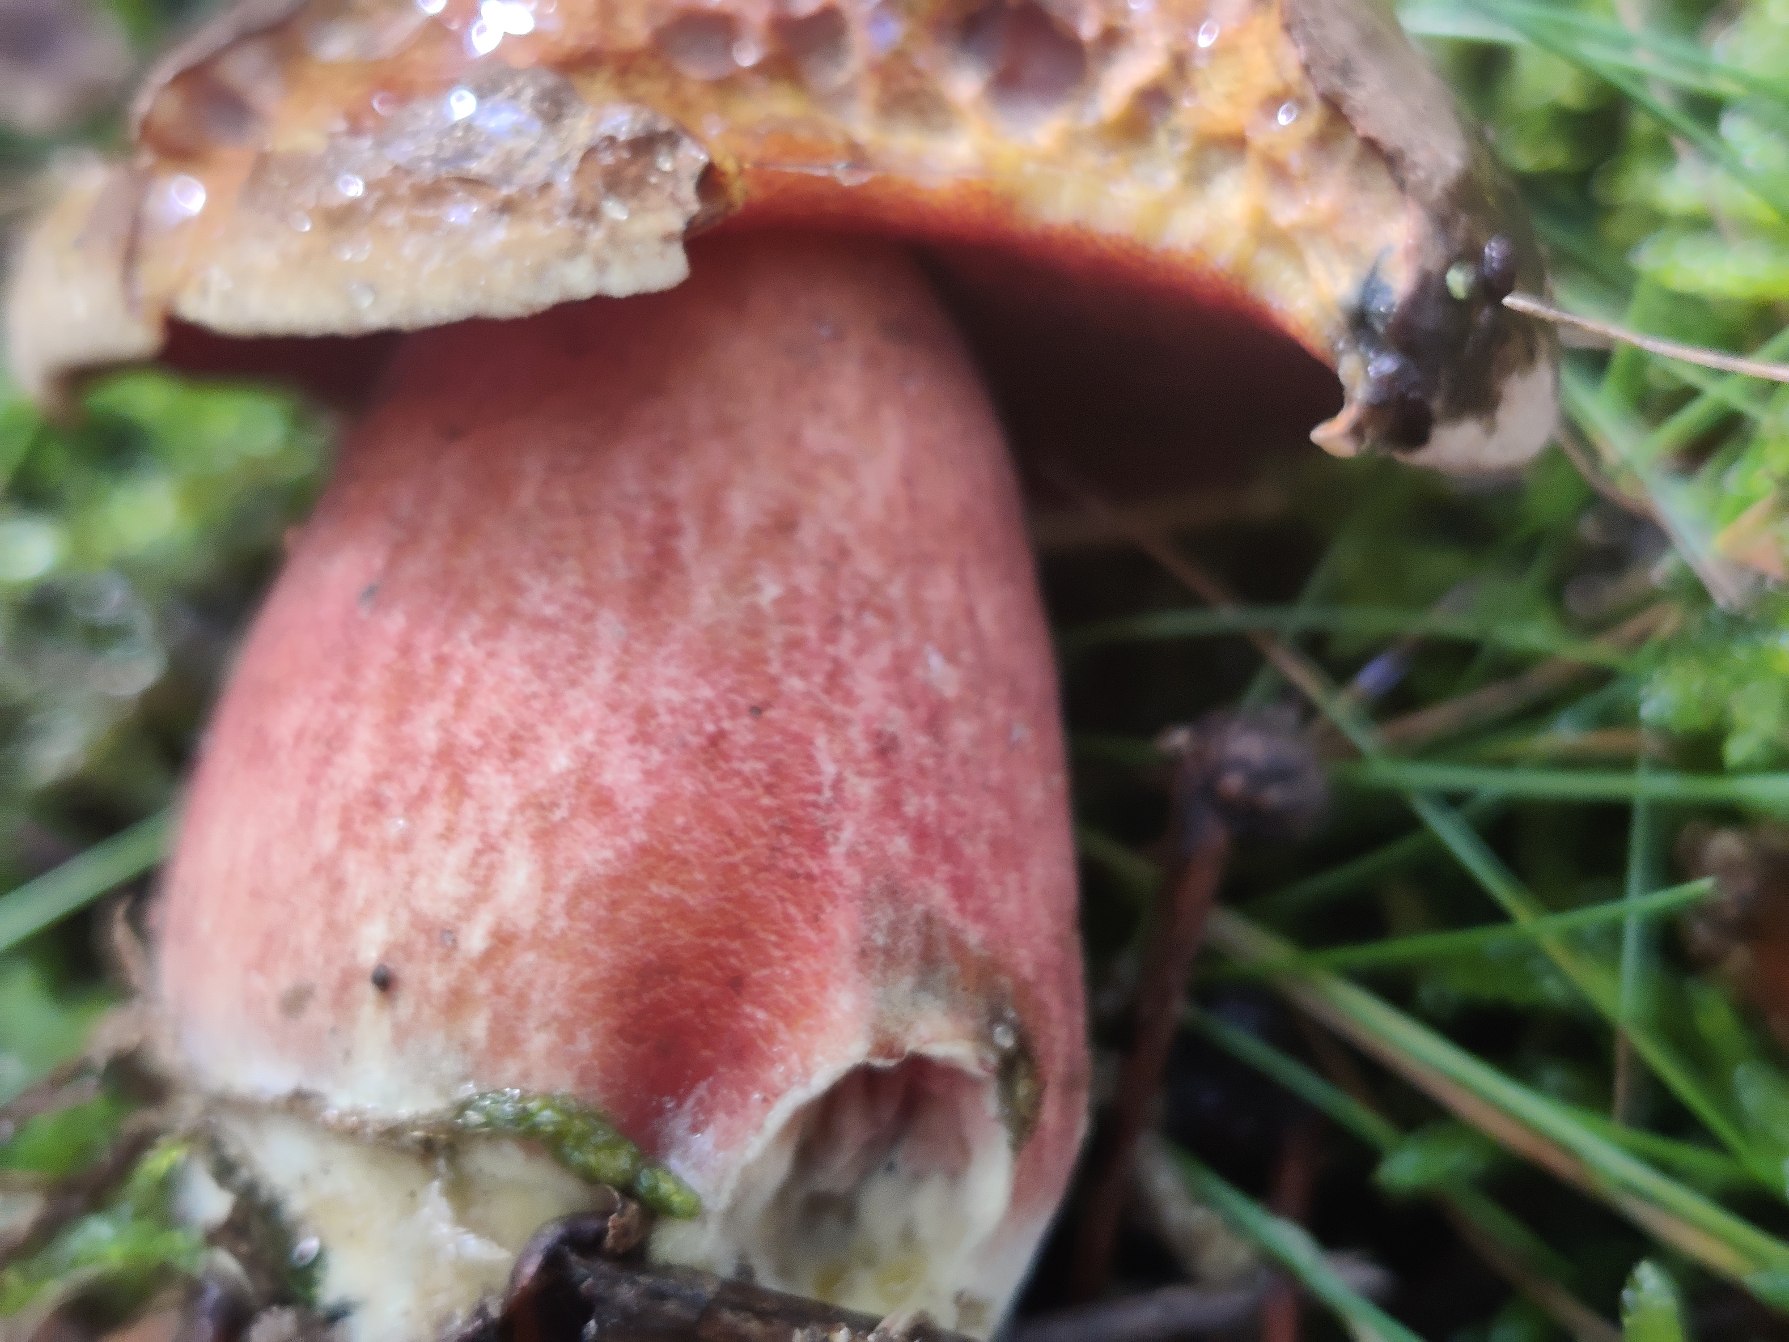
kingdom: Fungi
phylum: Basidiomycota
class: Agaricomycetes
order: Boletales
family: Boletaceae
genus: Neoboletus
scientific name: Neoboletus luridiformis
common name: Punktstokket indigorørhat
